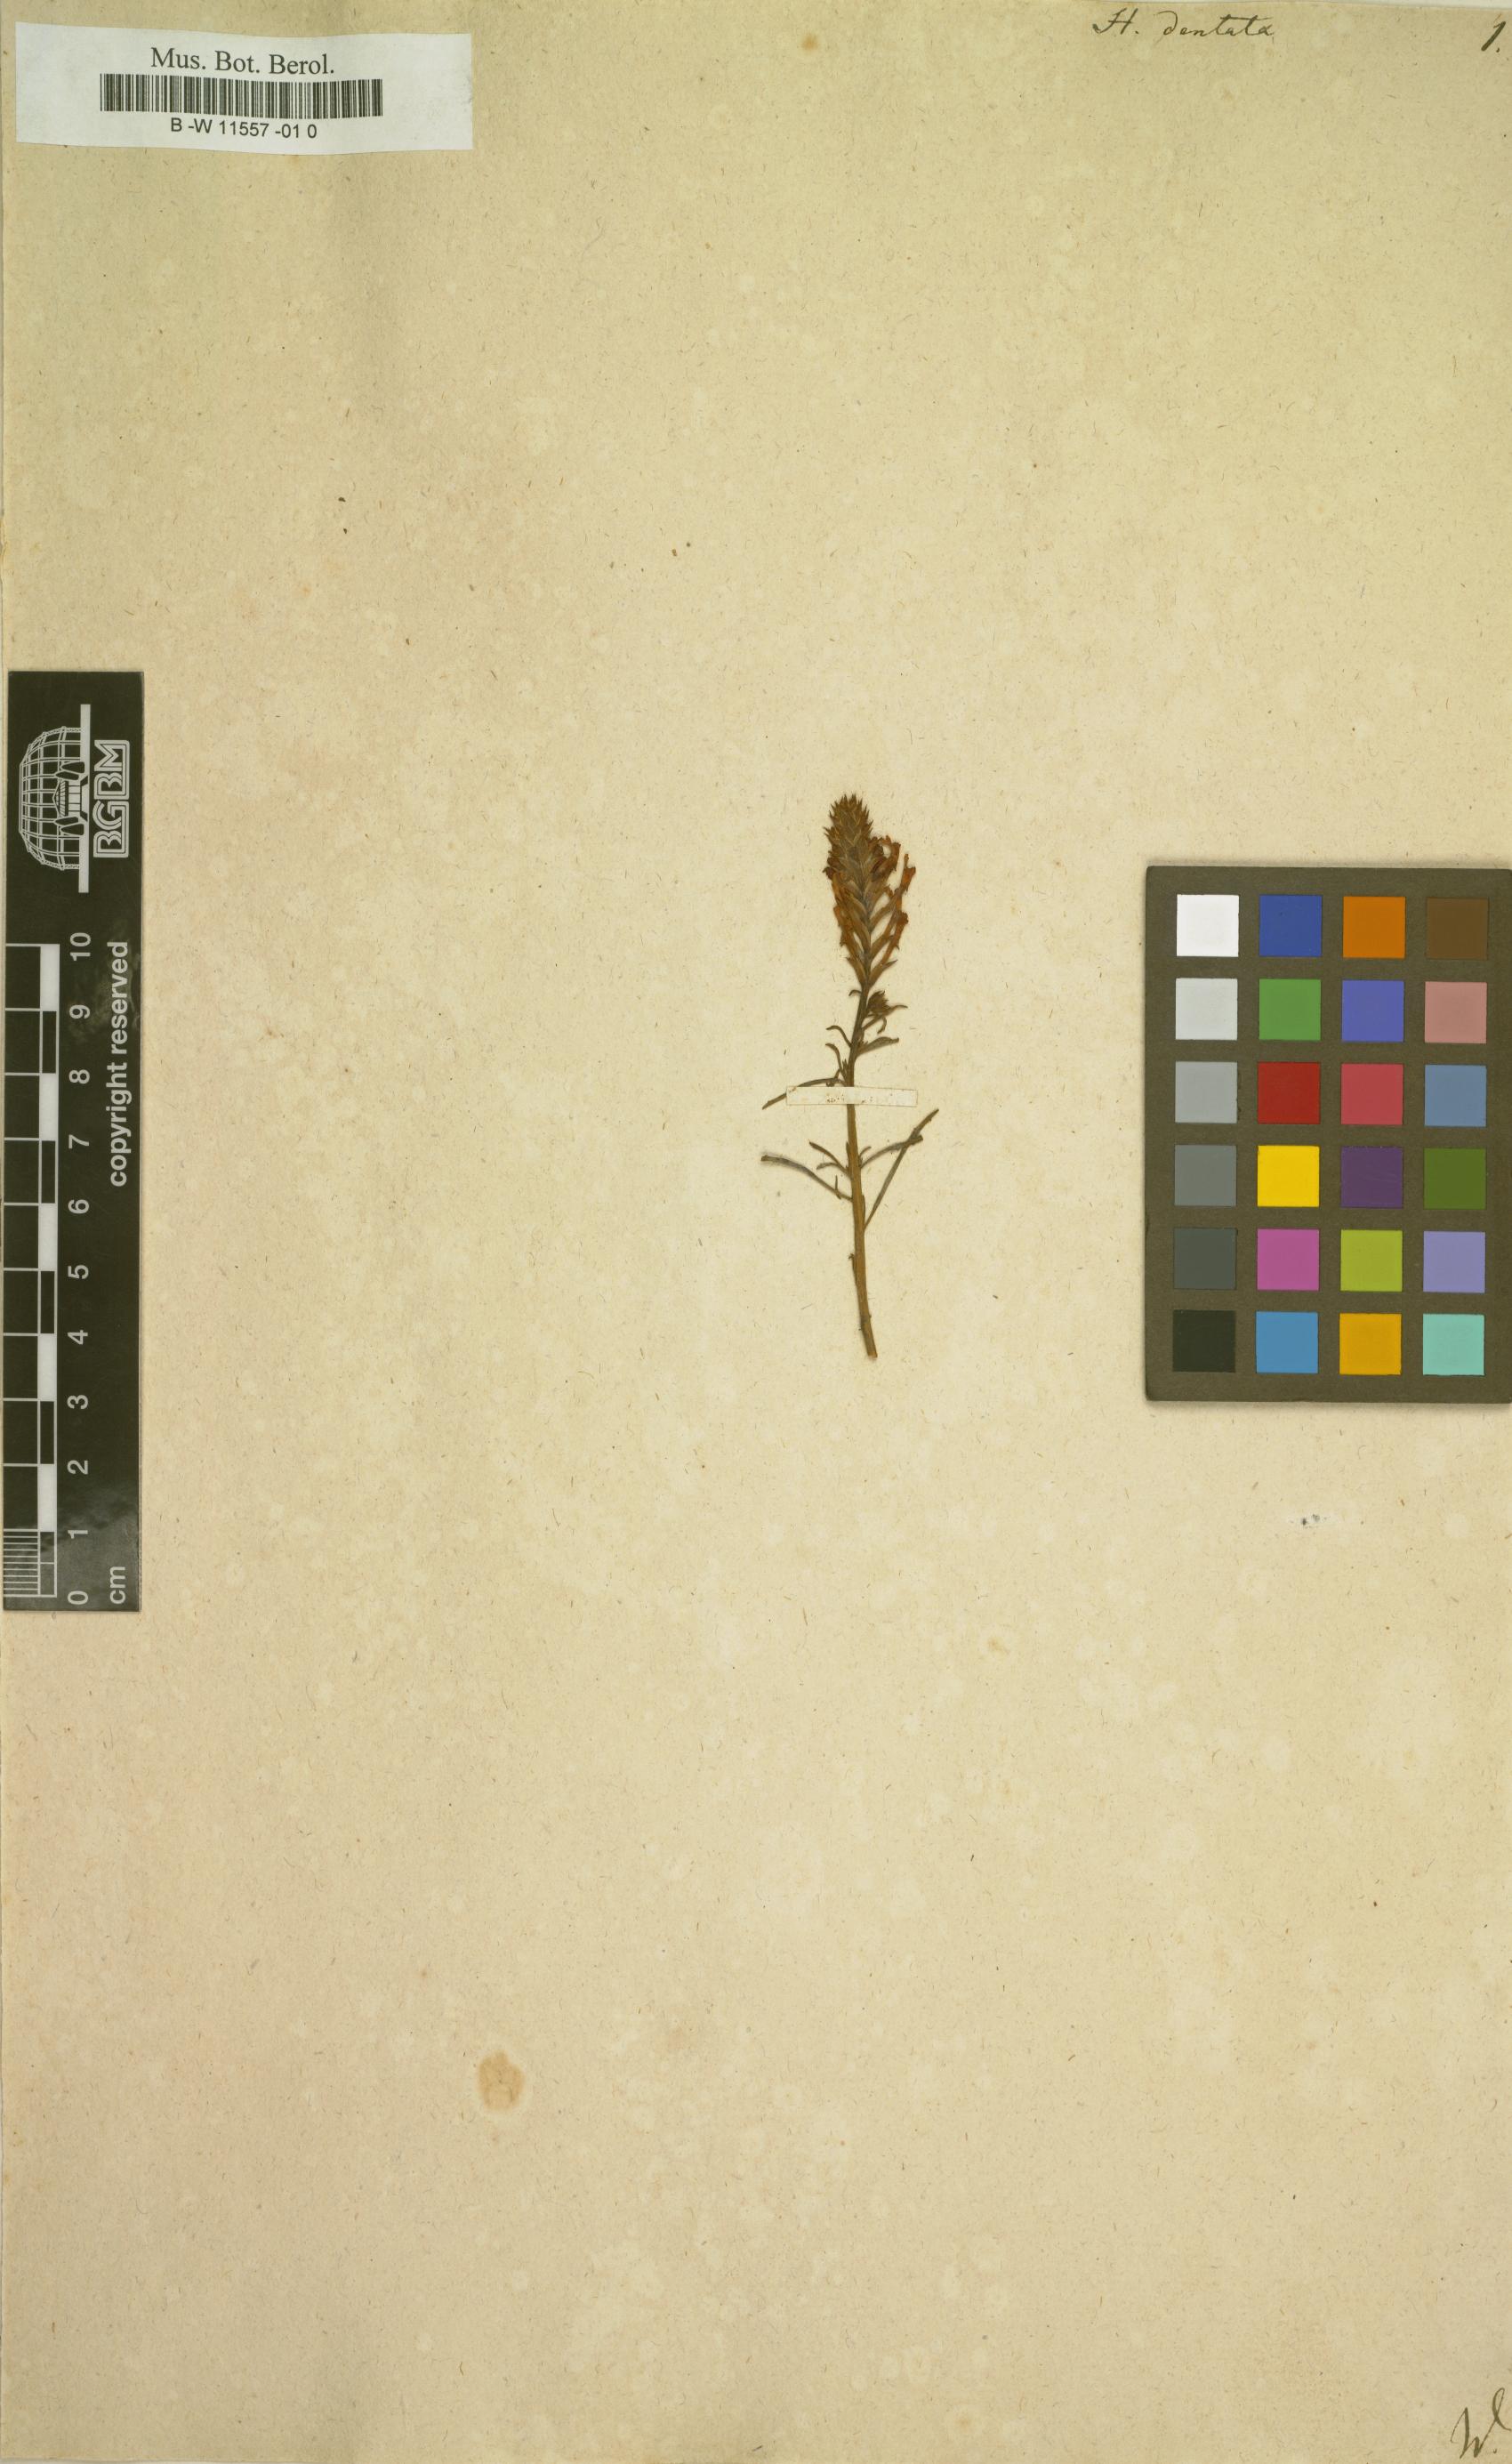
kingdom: Plantae
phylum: Tracheophyta
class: Magnoliopsida
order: Lamiales
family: Scrophulariaceae
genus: Hebenstretia
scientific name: Hebenstretia dentata
